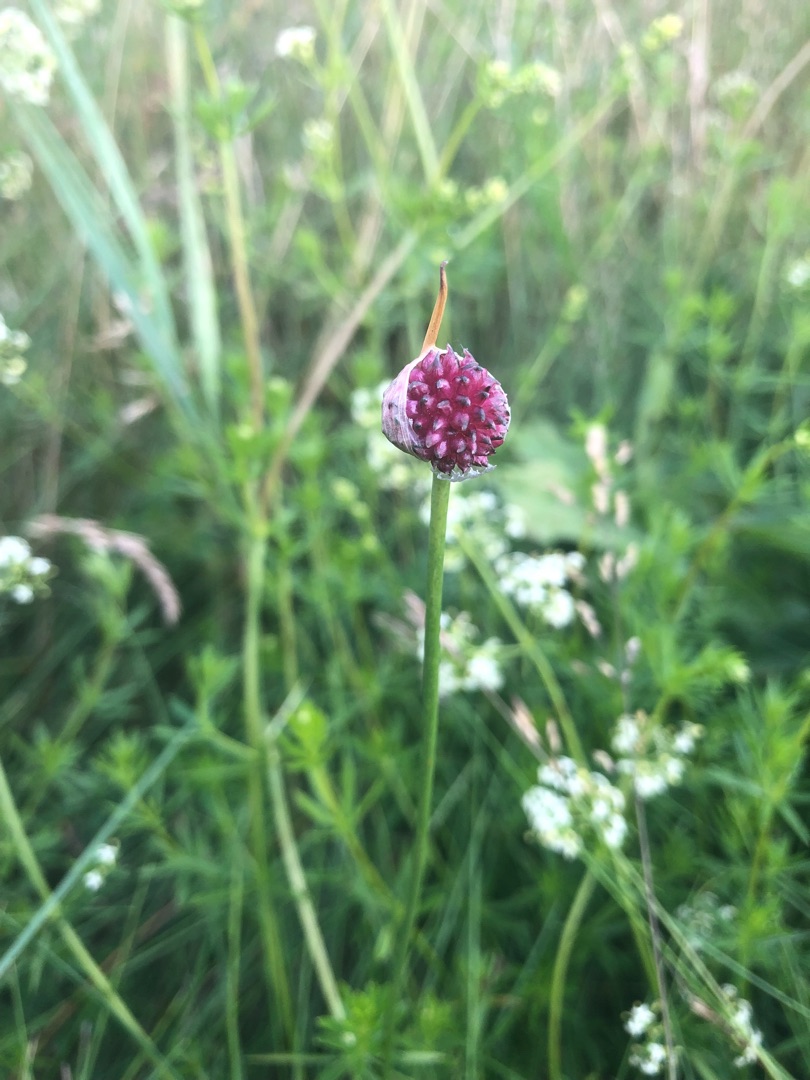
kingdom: Plantae
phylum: Tracheophyta
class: Liliopsida
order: Asparagales
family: Amaryllidaceae
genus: Allium
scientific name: Allium oleraceum
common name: Vild løg
